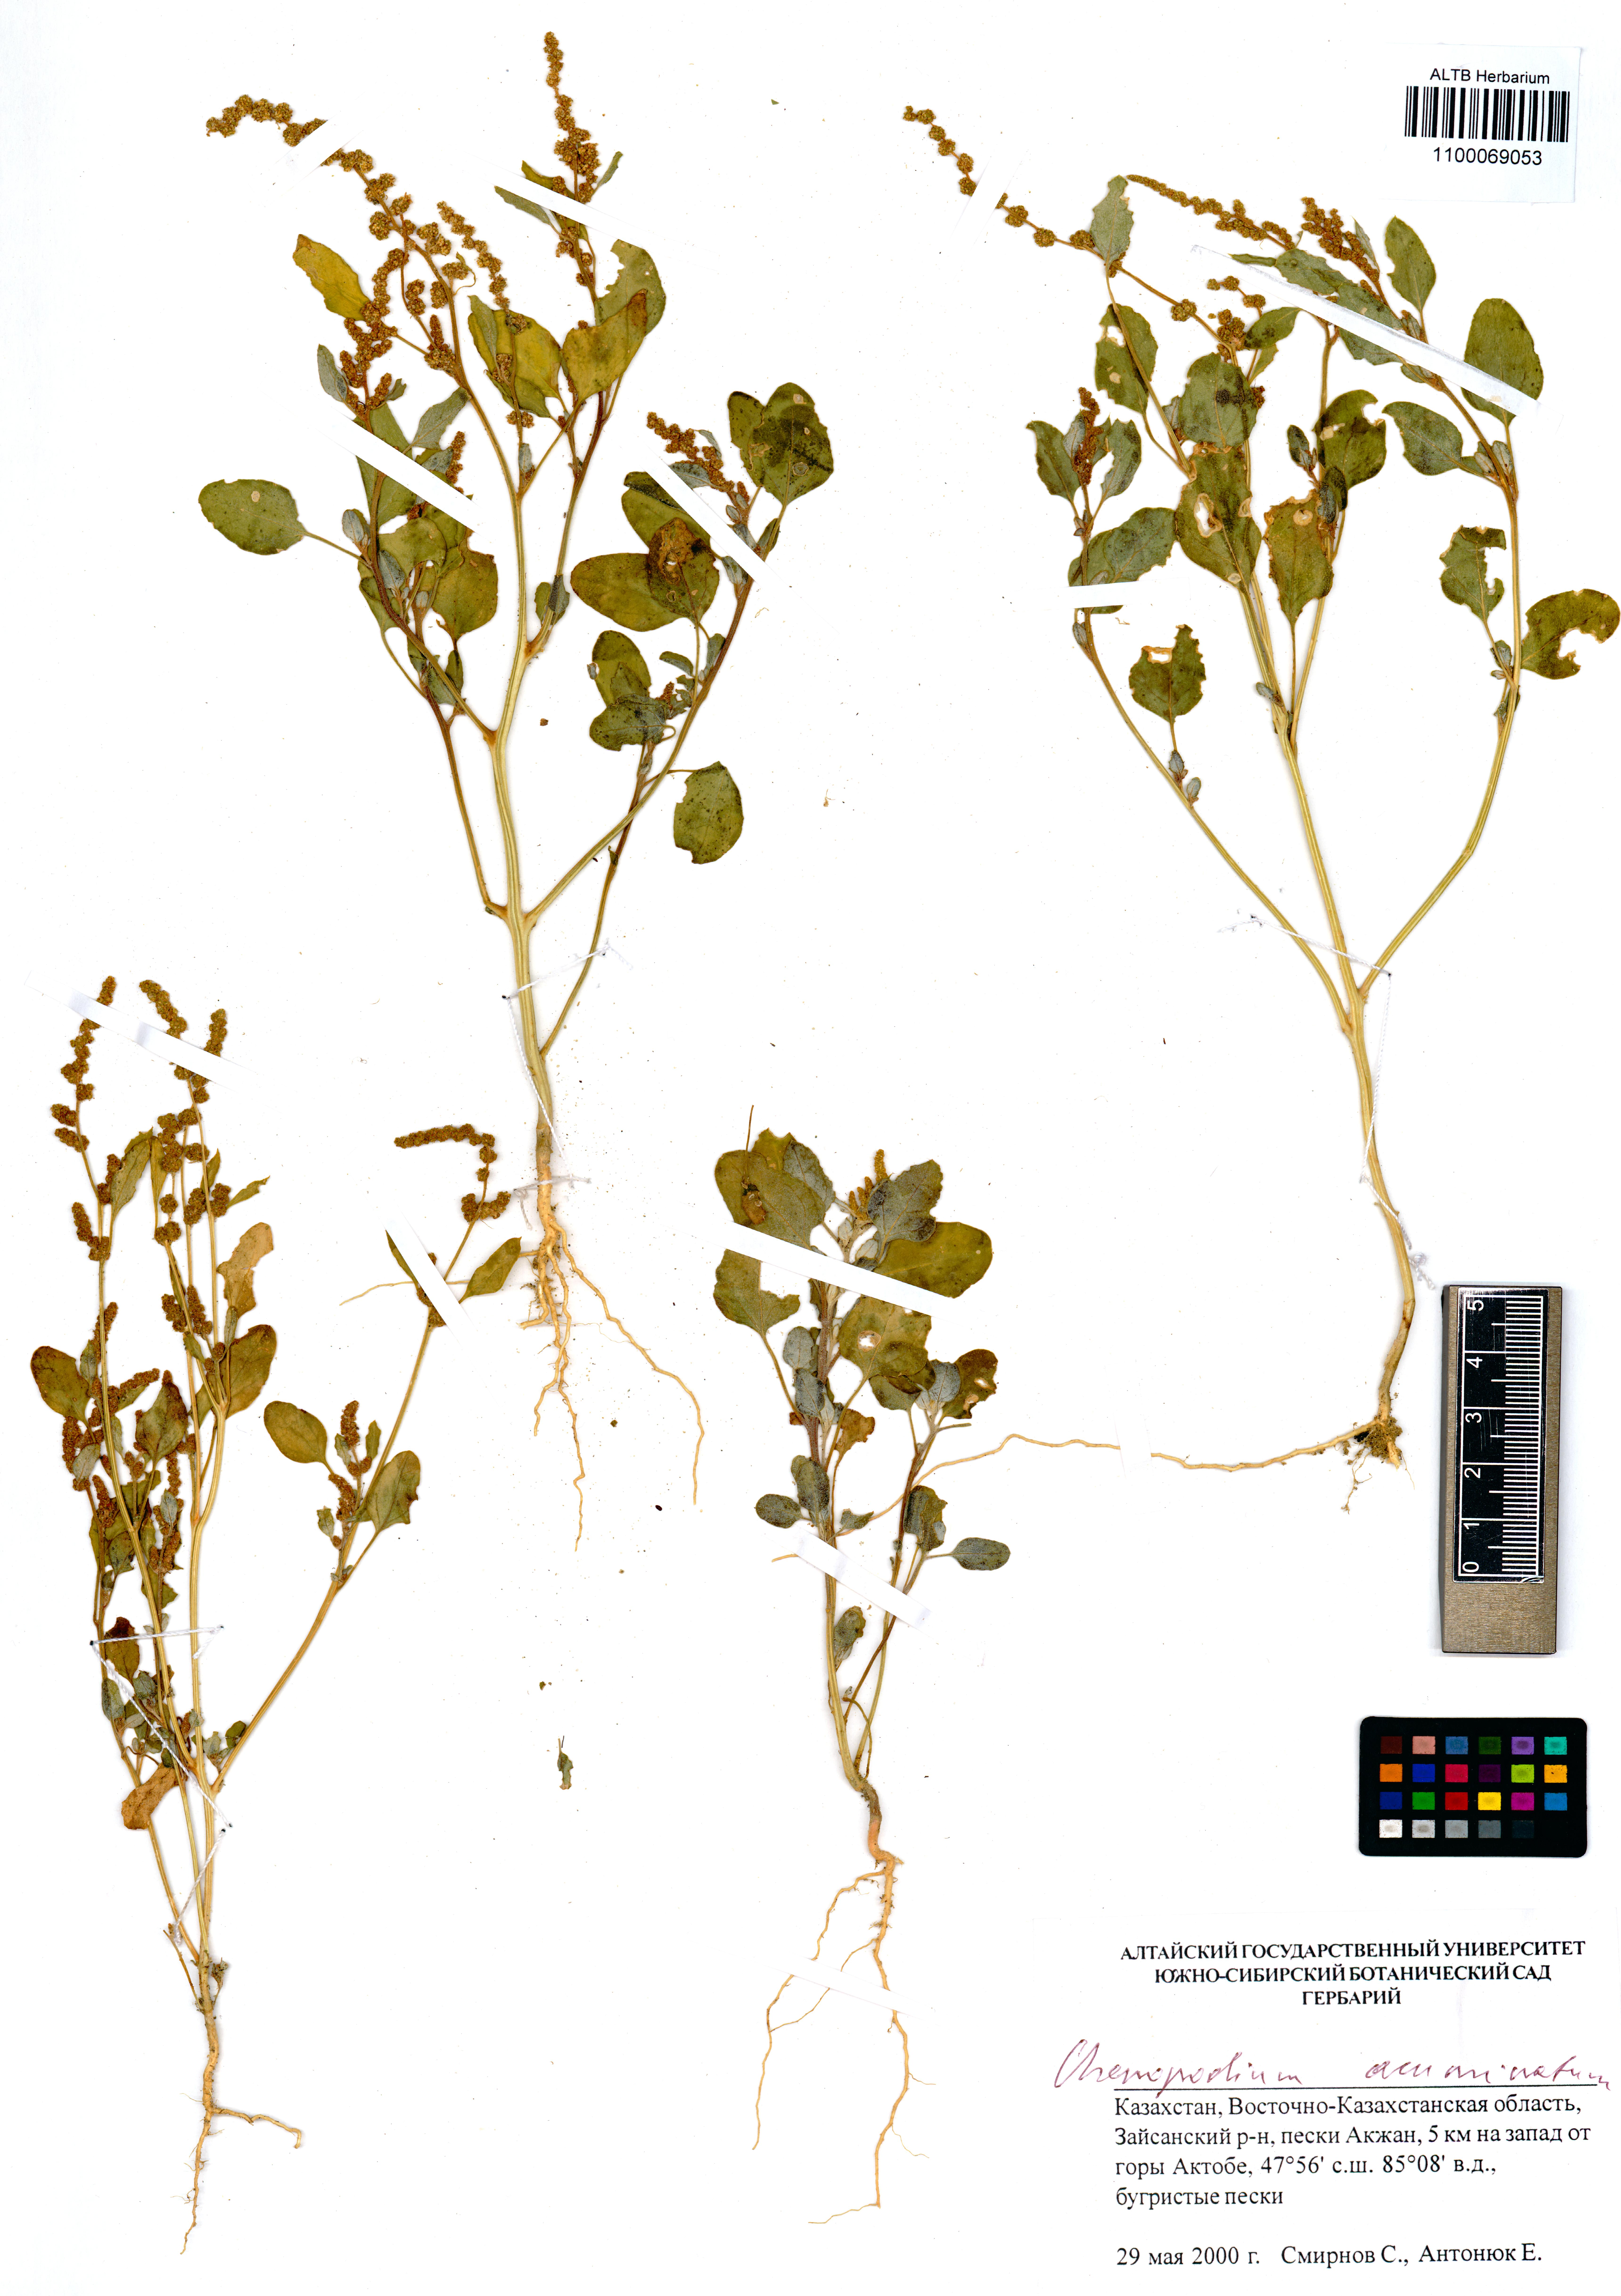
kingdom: Plantae
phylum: Tracheophyta
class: Magnoliopsida
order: Caryophyllales
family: Amaranthaceae
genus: Oxybasis
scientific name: Oxybasis rubra
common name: Red goosefoot
